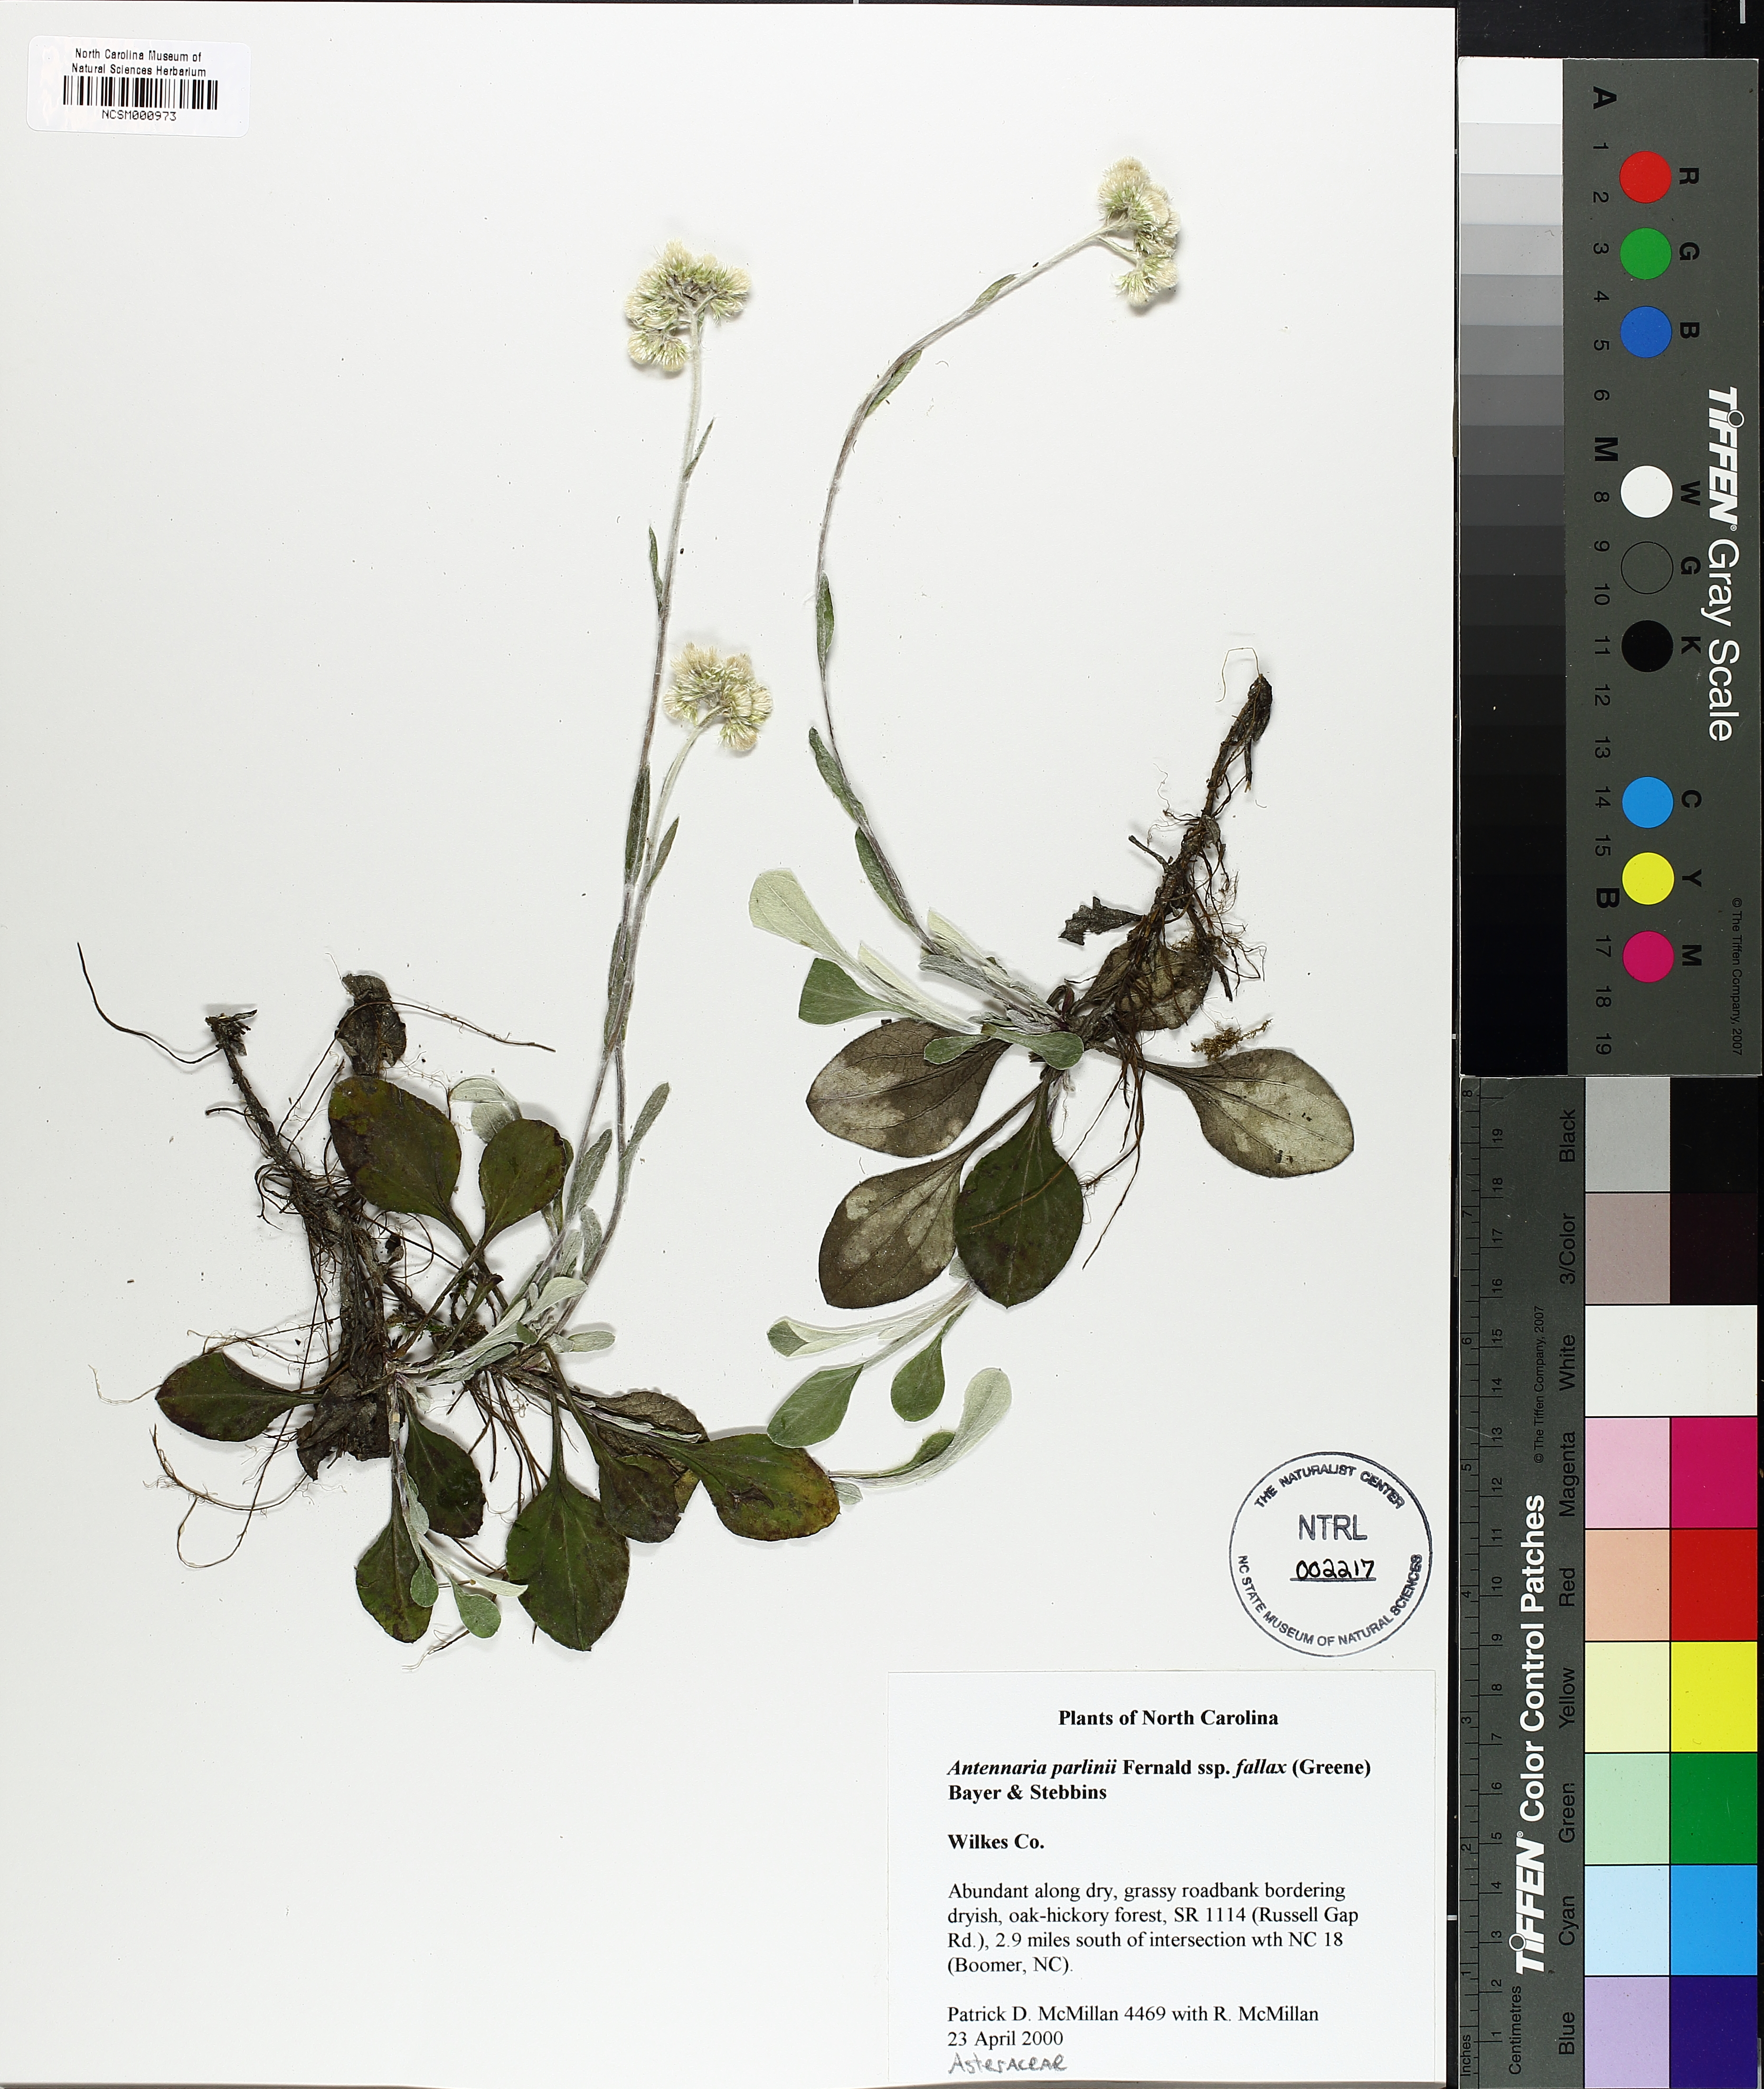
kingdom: Plantae
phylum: Tracheophyta
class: Magnoliopsida
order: Asterales
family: Asteraceae
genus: Antennaria
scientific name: Antennaria parlinii
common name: Parlin's pussytoes
